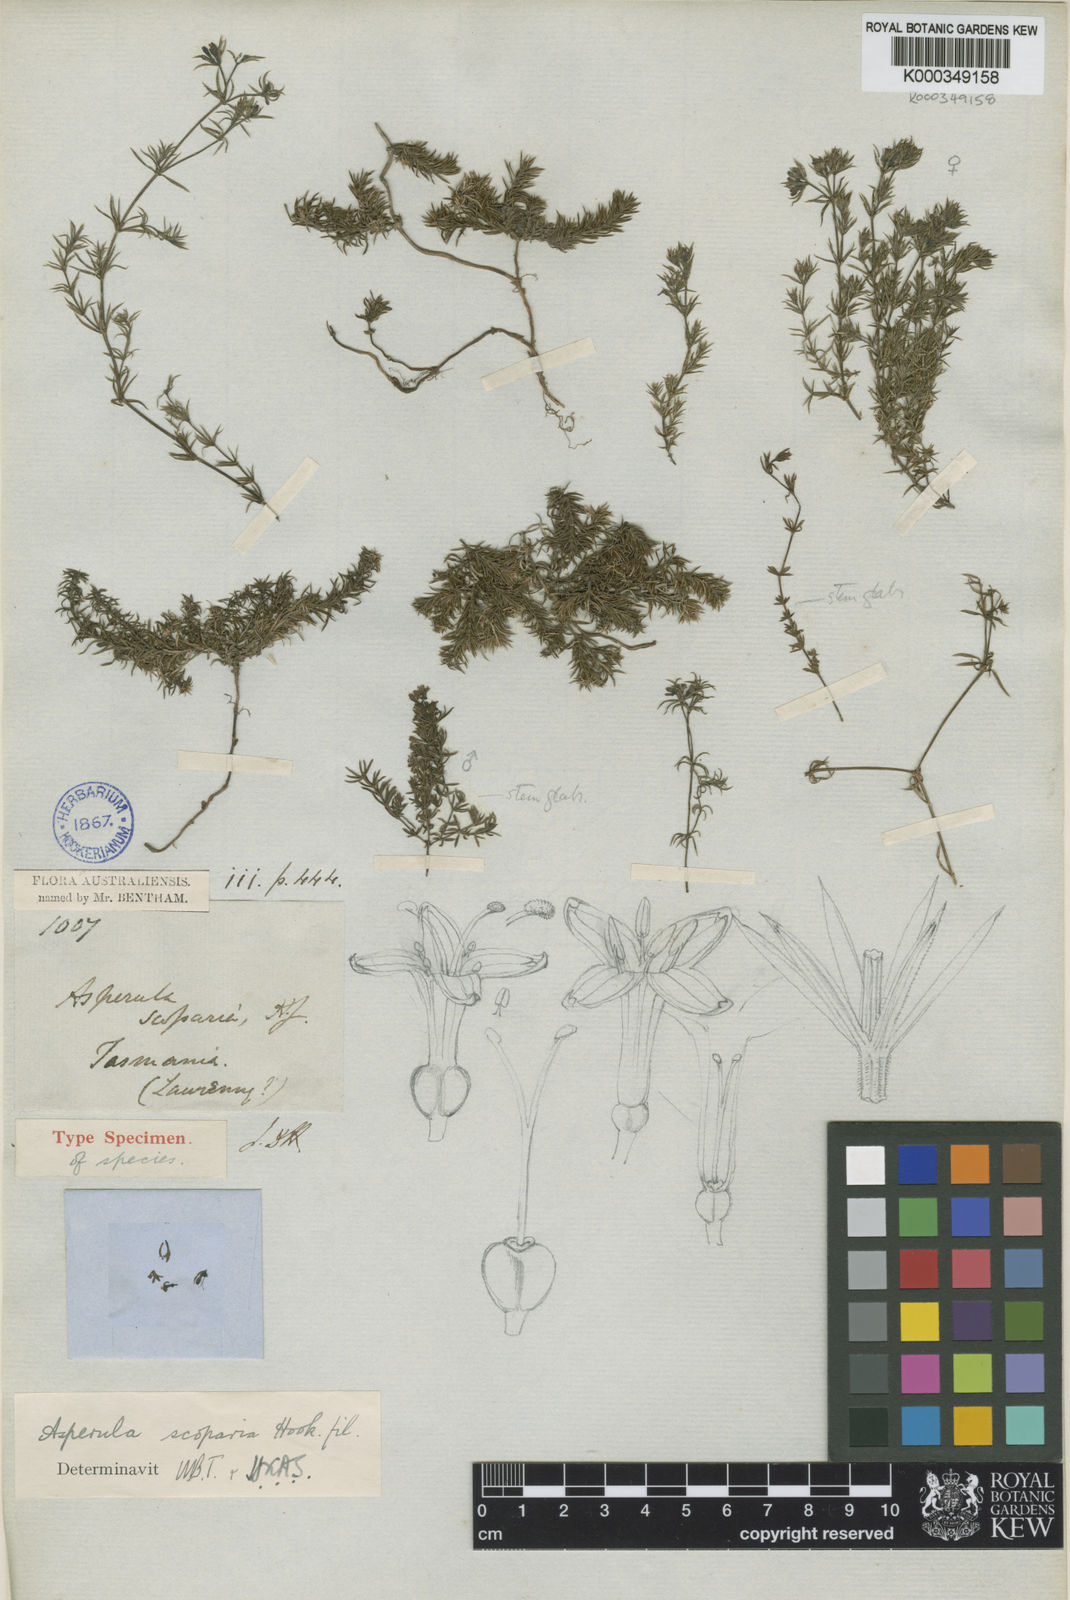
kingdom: Plantae
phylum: Tracheophyta
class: Magnoliopsida
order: Gentianales
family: Rubiaceae
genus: Asperula
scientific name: Asperula scoparia
